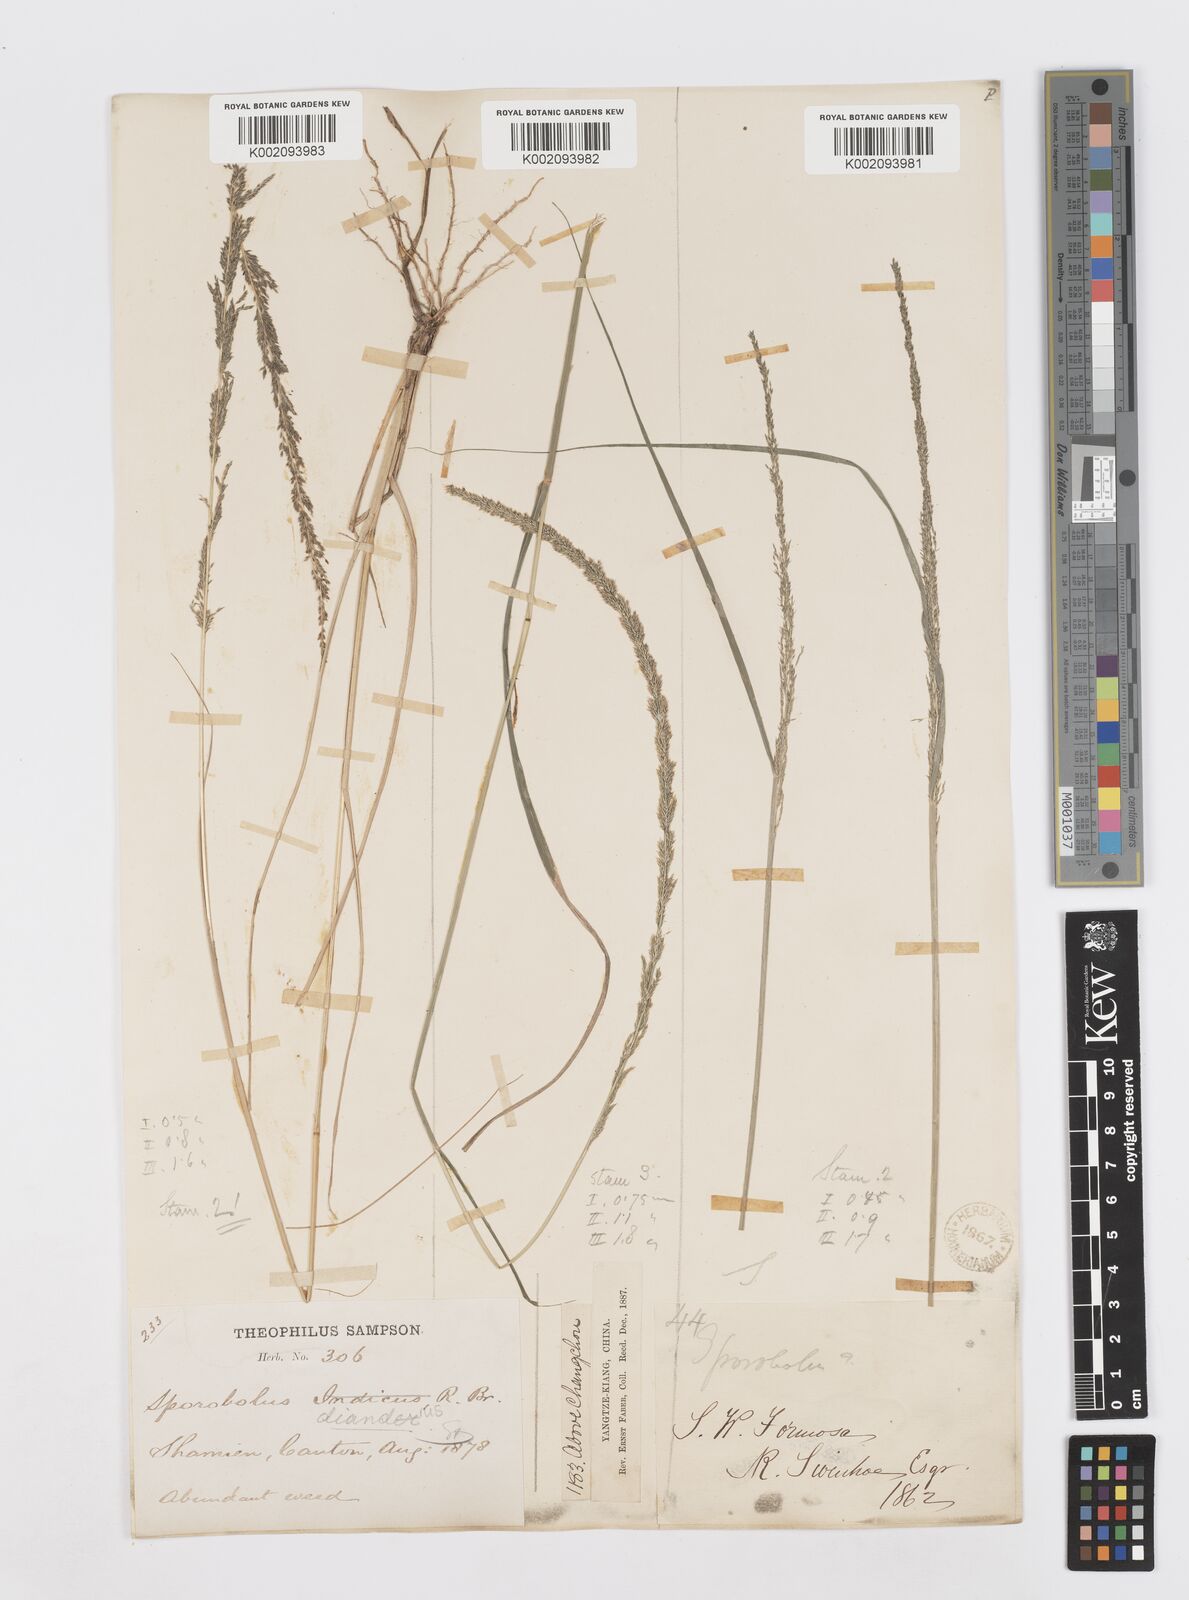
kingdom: Plantae
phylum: Tracheophyta
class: Liliopsida
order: Poales
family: Poaceae
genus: Sporobolus
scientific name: Sporobolus diandrus
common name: Tussock dropseed
